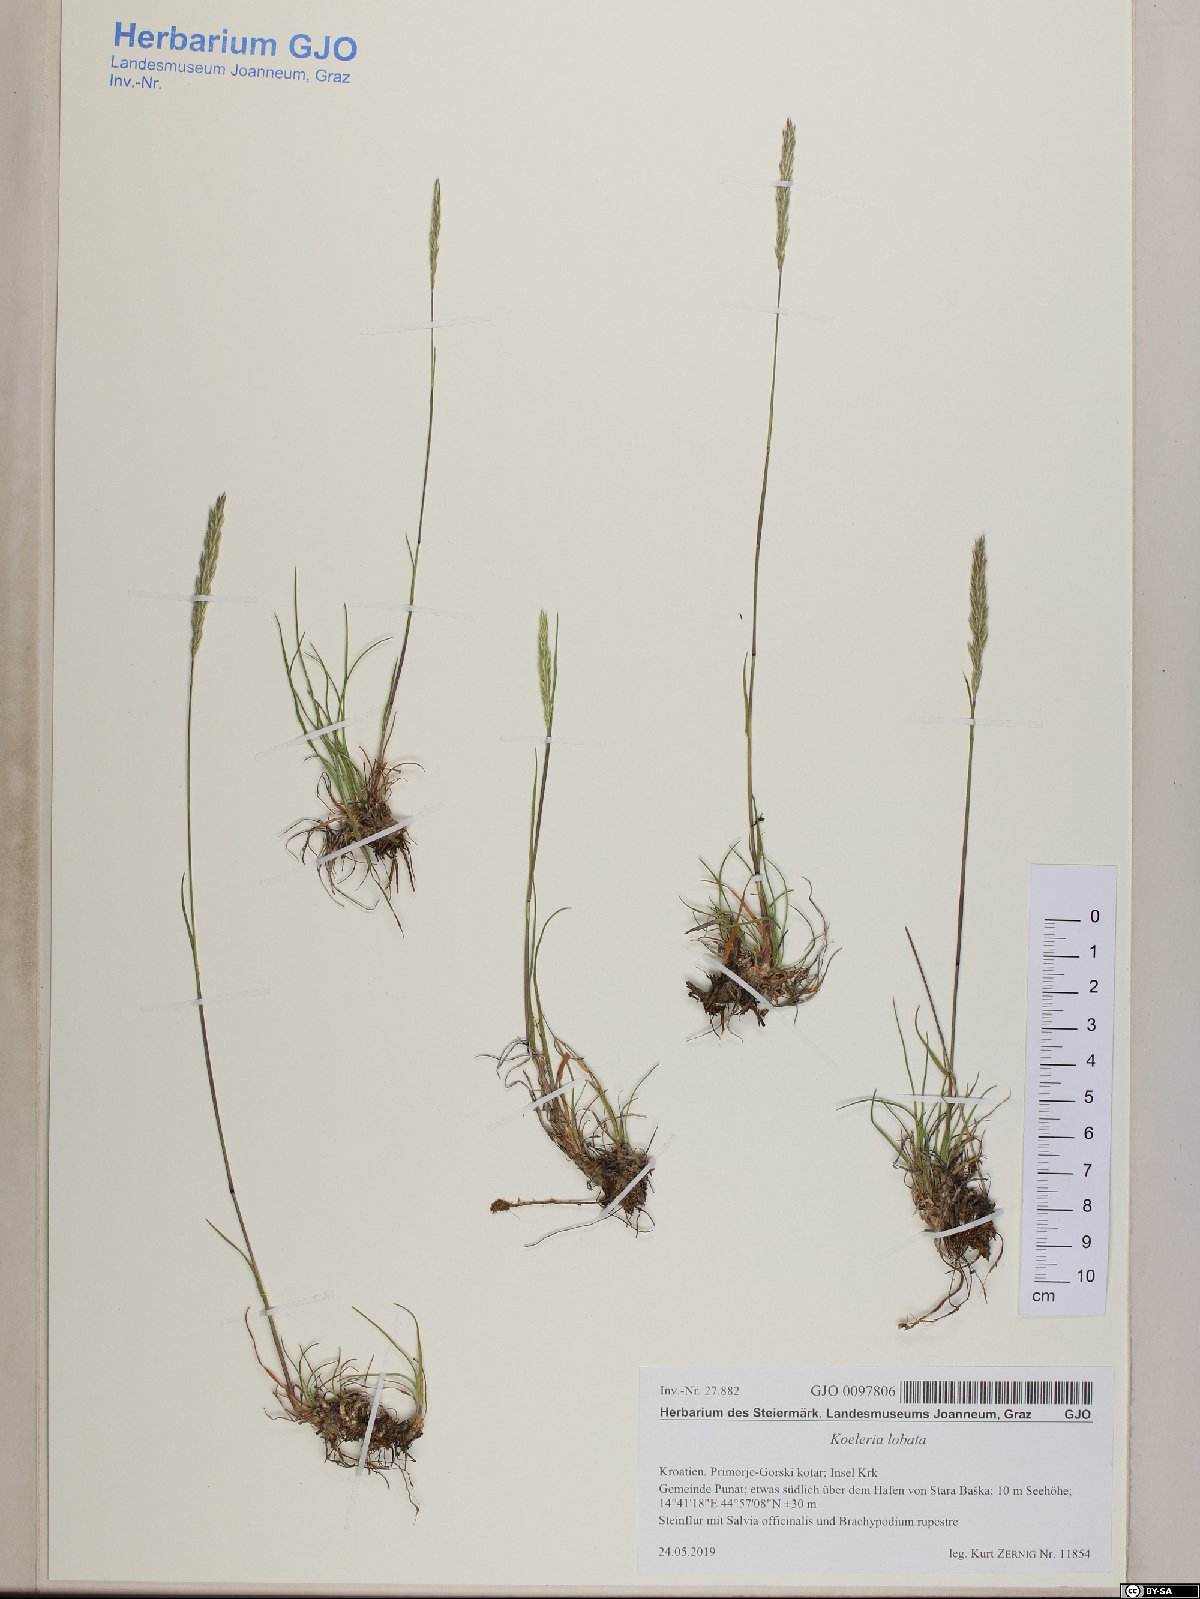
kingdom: Plantae
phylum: Tracheophyta
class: Liliopsida
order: Poales
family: Poaceae
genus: Koeleria
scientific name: Koeleria brevis
